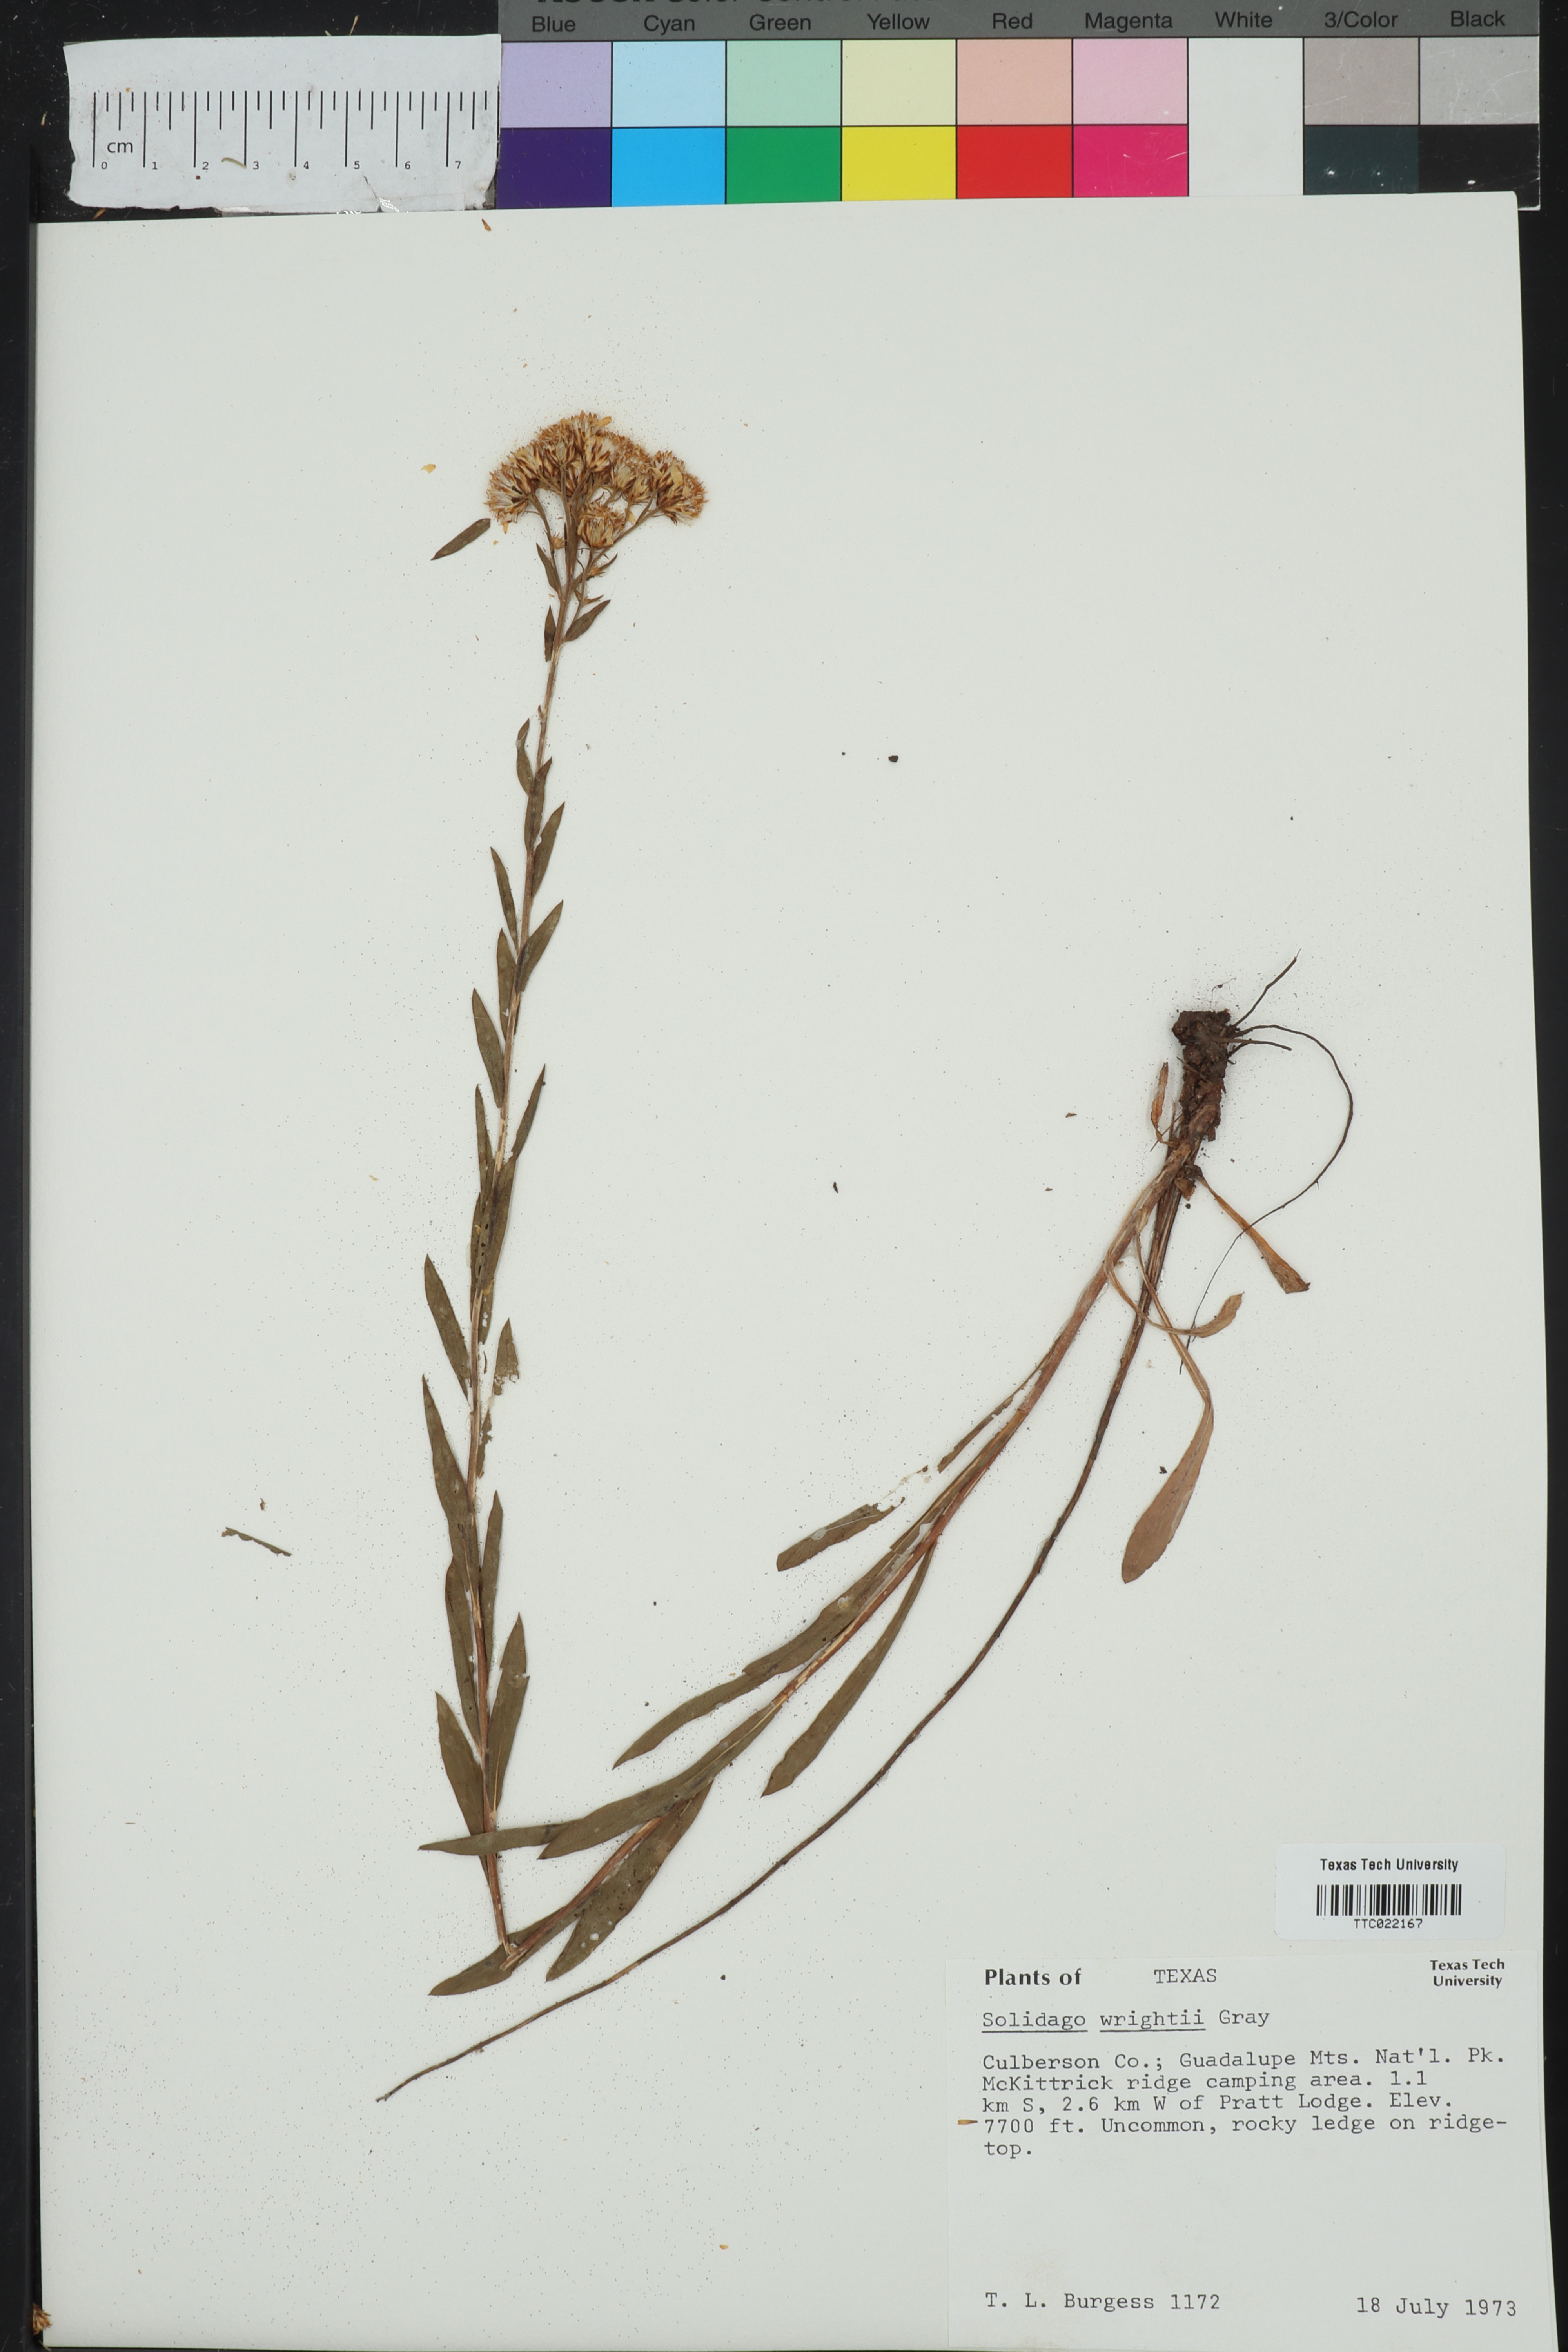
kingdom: Plantae
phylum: Tracheophyta
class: Magnoliopsida
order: Asterales
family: Asteraceae
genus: Solidago
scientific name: Solidago wrightii
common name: Wright's goldenrod
